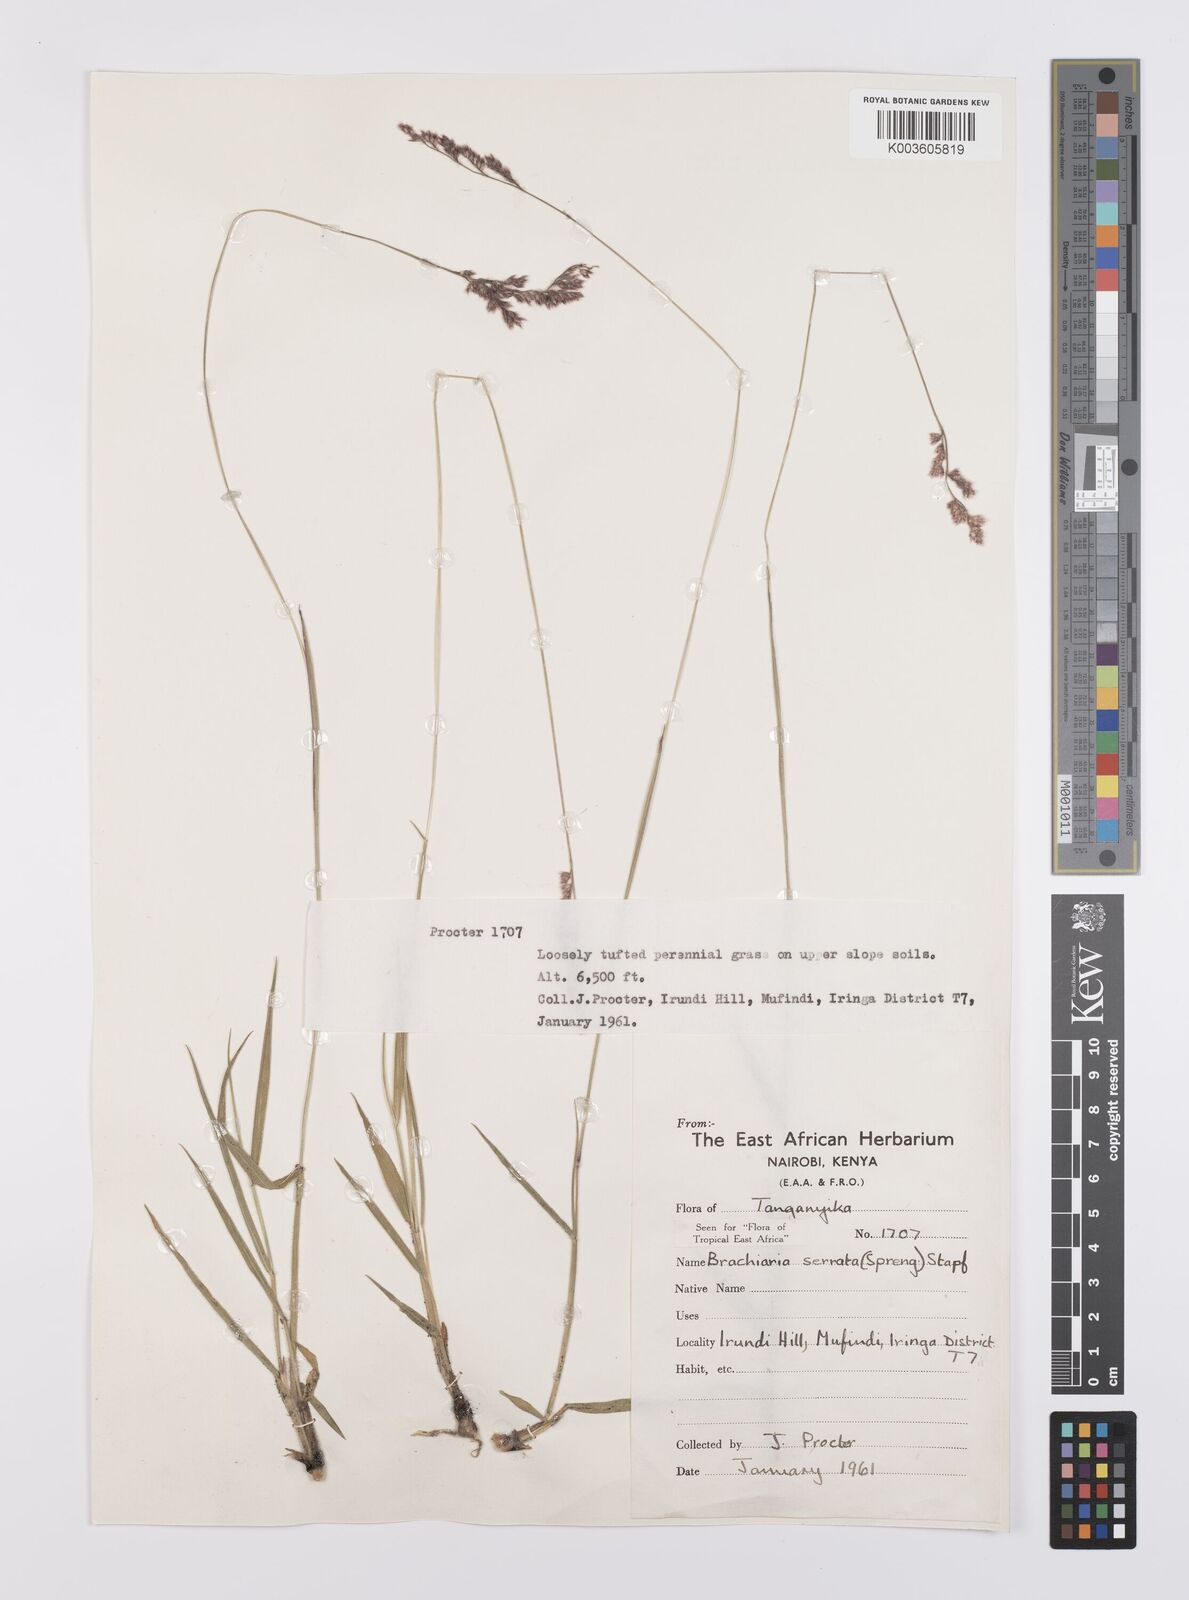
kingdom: Plantae
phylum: Tracheophyta
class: Liliopsida
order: Poales
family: Poaceae
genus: Urochloa
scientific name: Urochloa serrata
